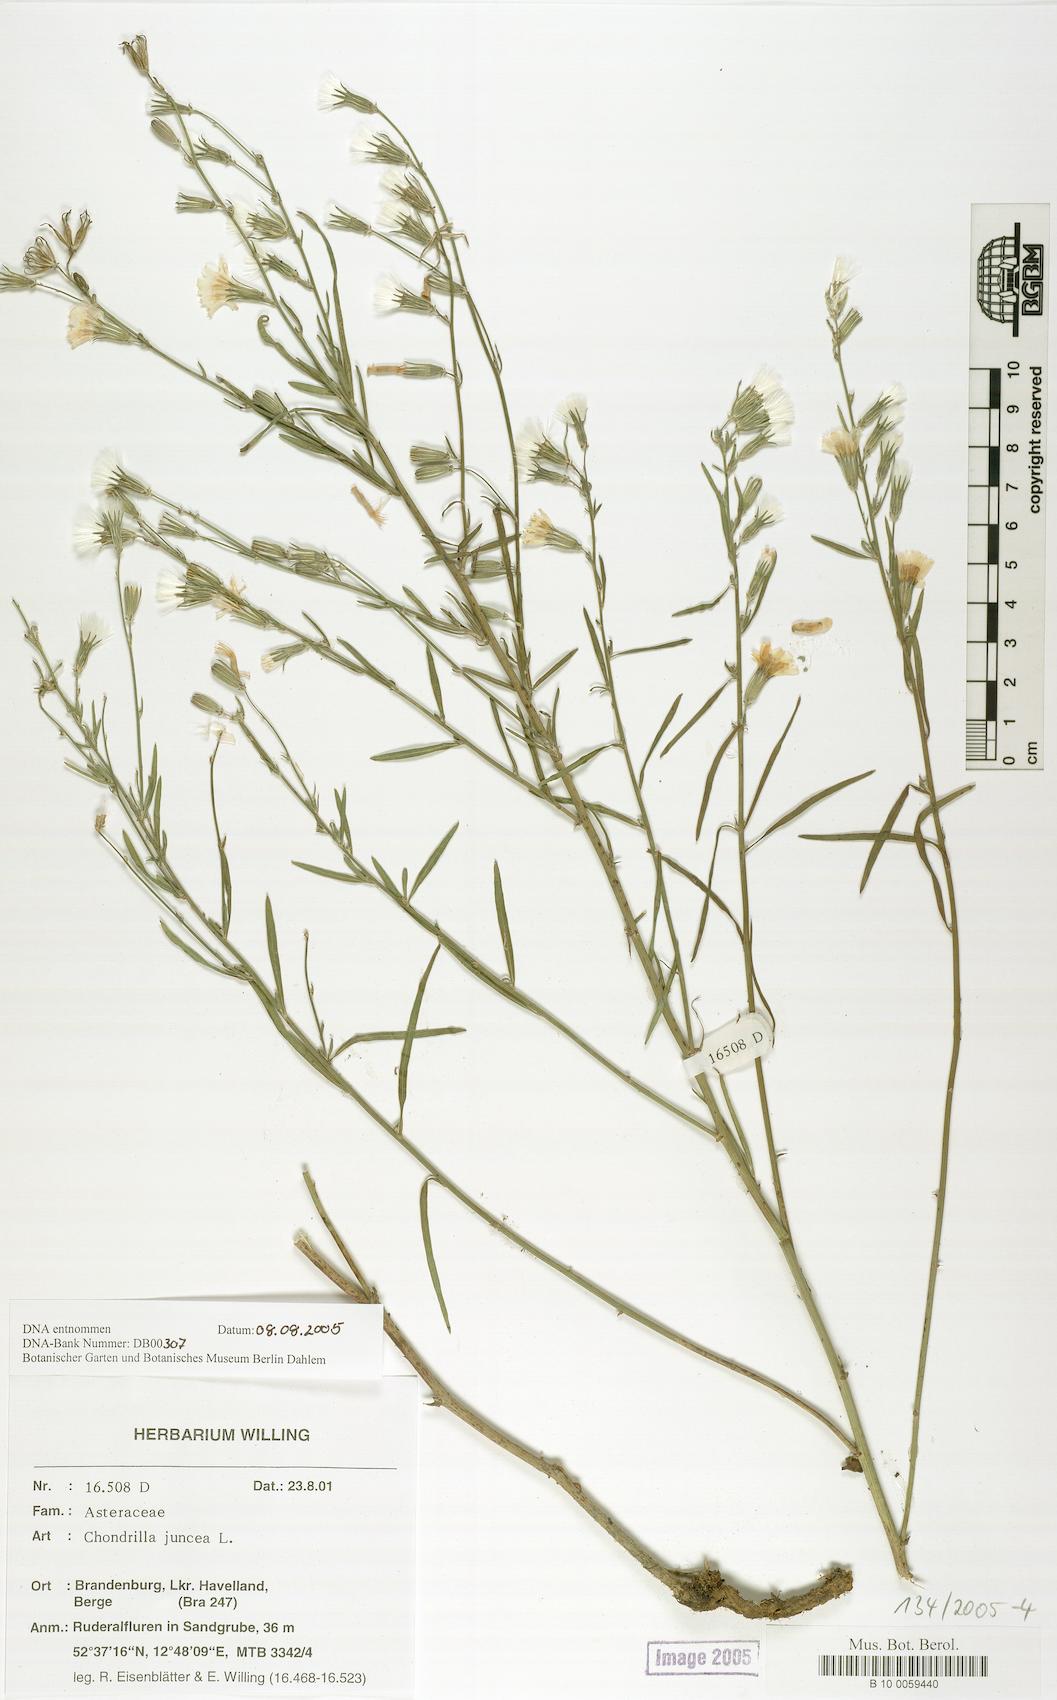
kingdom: Plantae
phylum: Tracheophyta
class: Magnoliopsida
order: Asterales
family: Asteraceae
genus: Chondrilla
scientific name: Chondrilla juncea
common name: Skeleton weed
